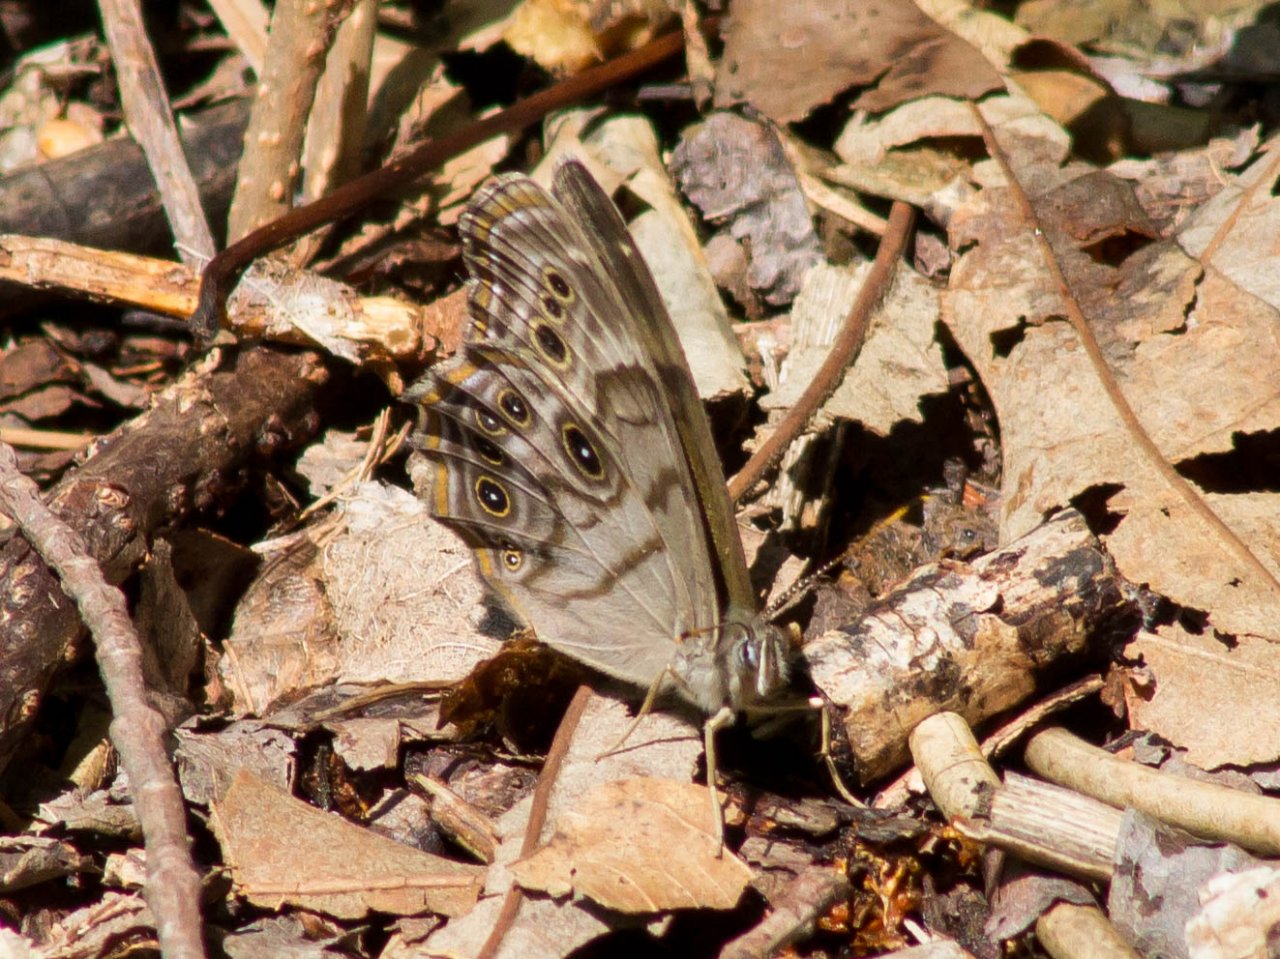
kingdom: Animalia
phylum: Arthropoda
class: Insecta
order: Lepidoptera
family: Nymphalidae
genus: Lethe
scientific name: Lethe anthedon
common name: Northern Pearly-Eye
